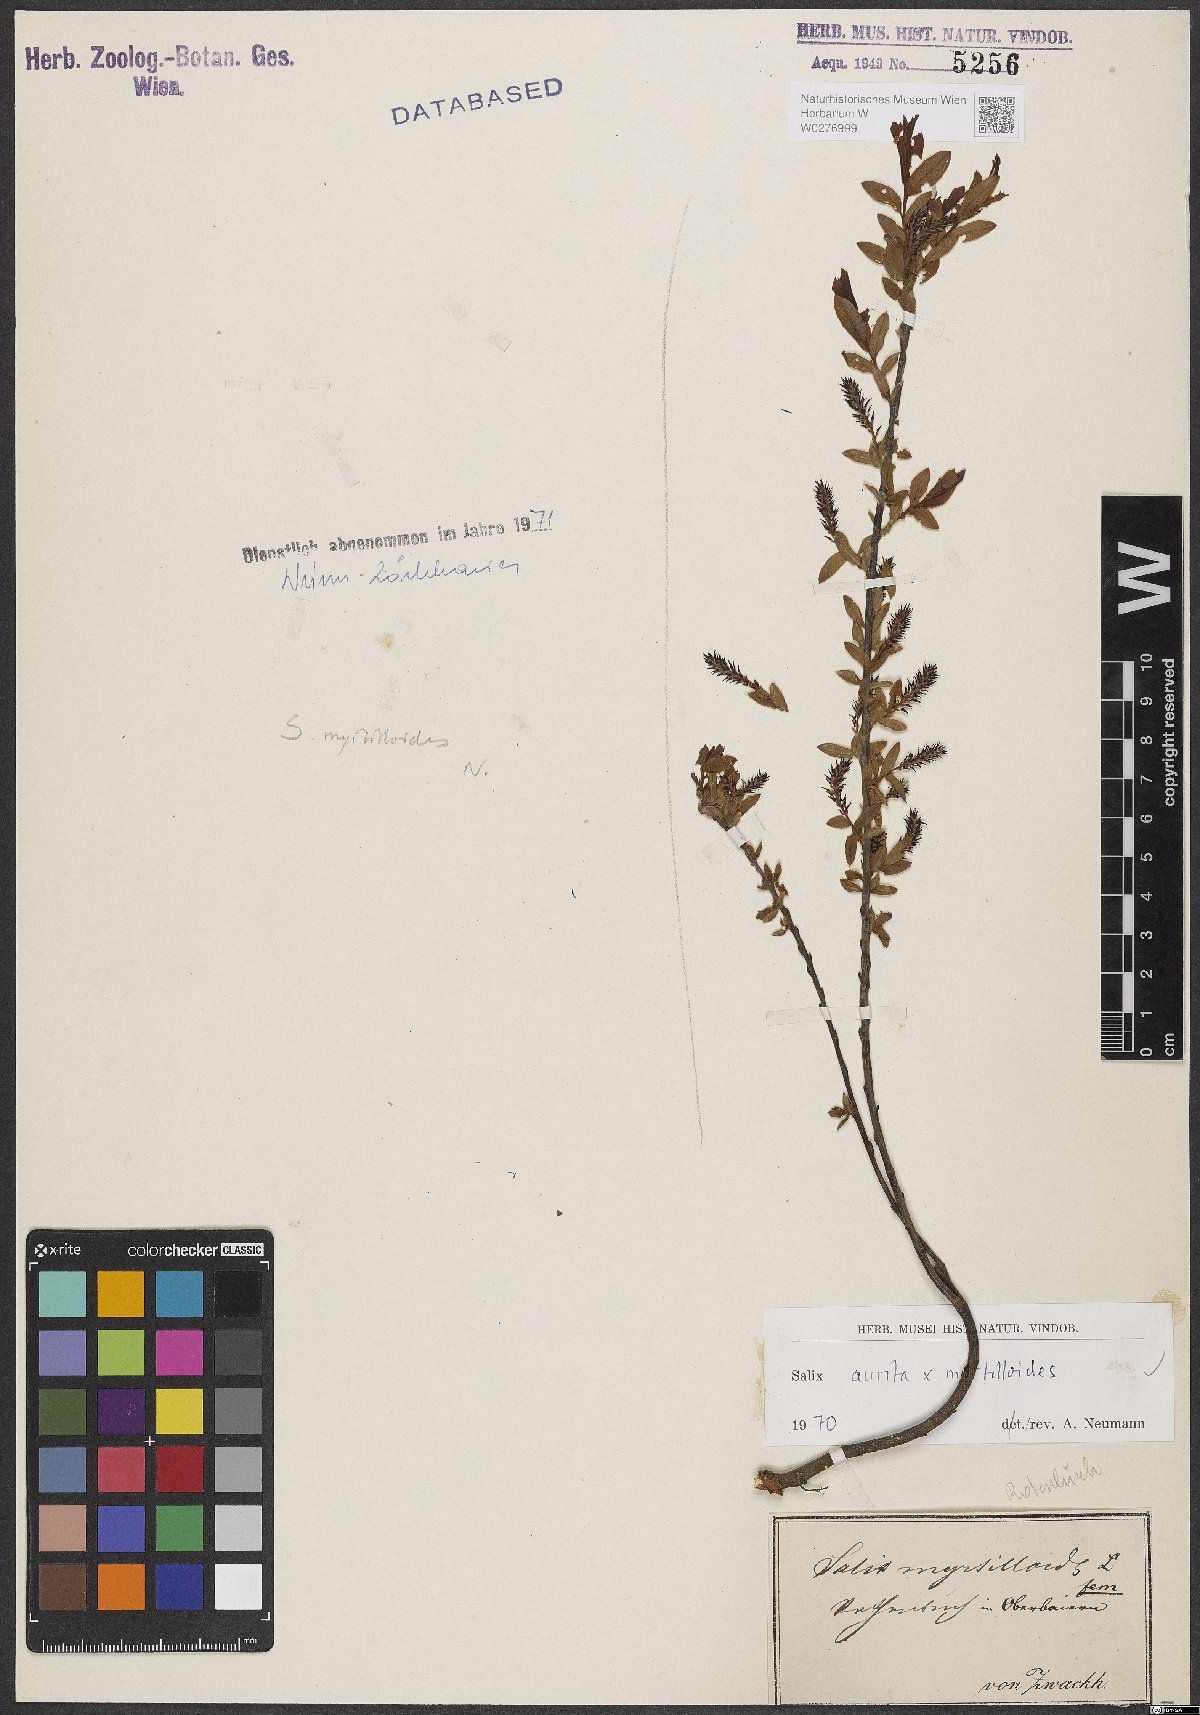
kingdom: Plantae
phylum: Tracheophyta
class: Magnoliopsida
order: Malpighiales
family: Salicaceae
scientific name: Salicaceae
